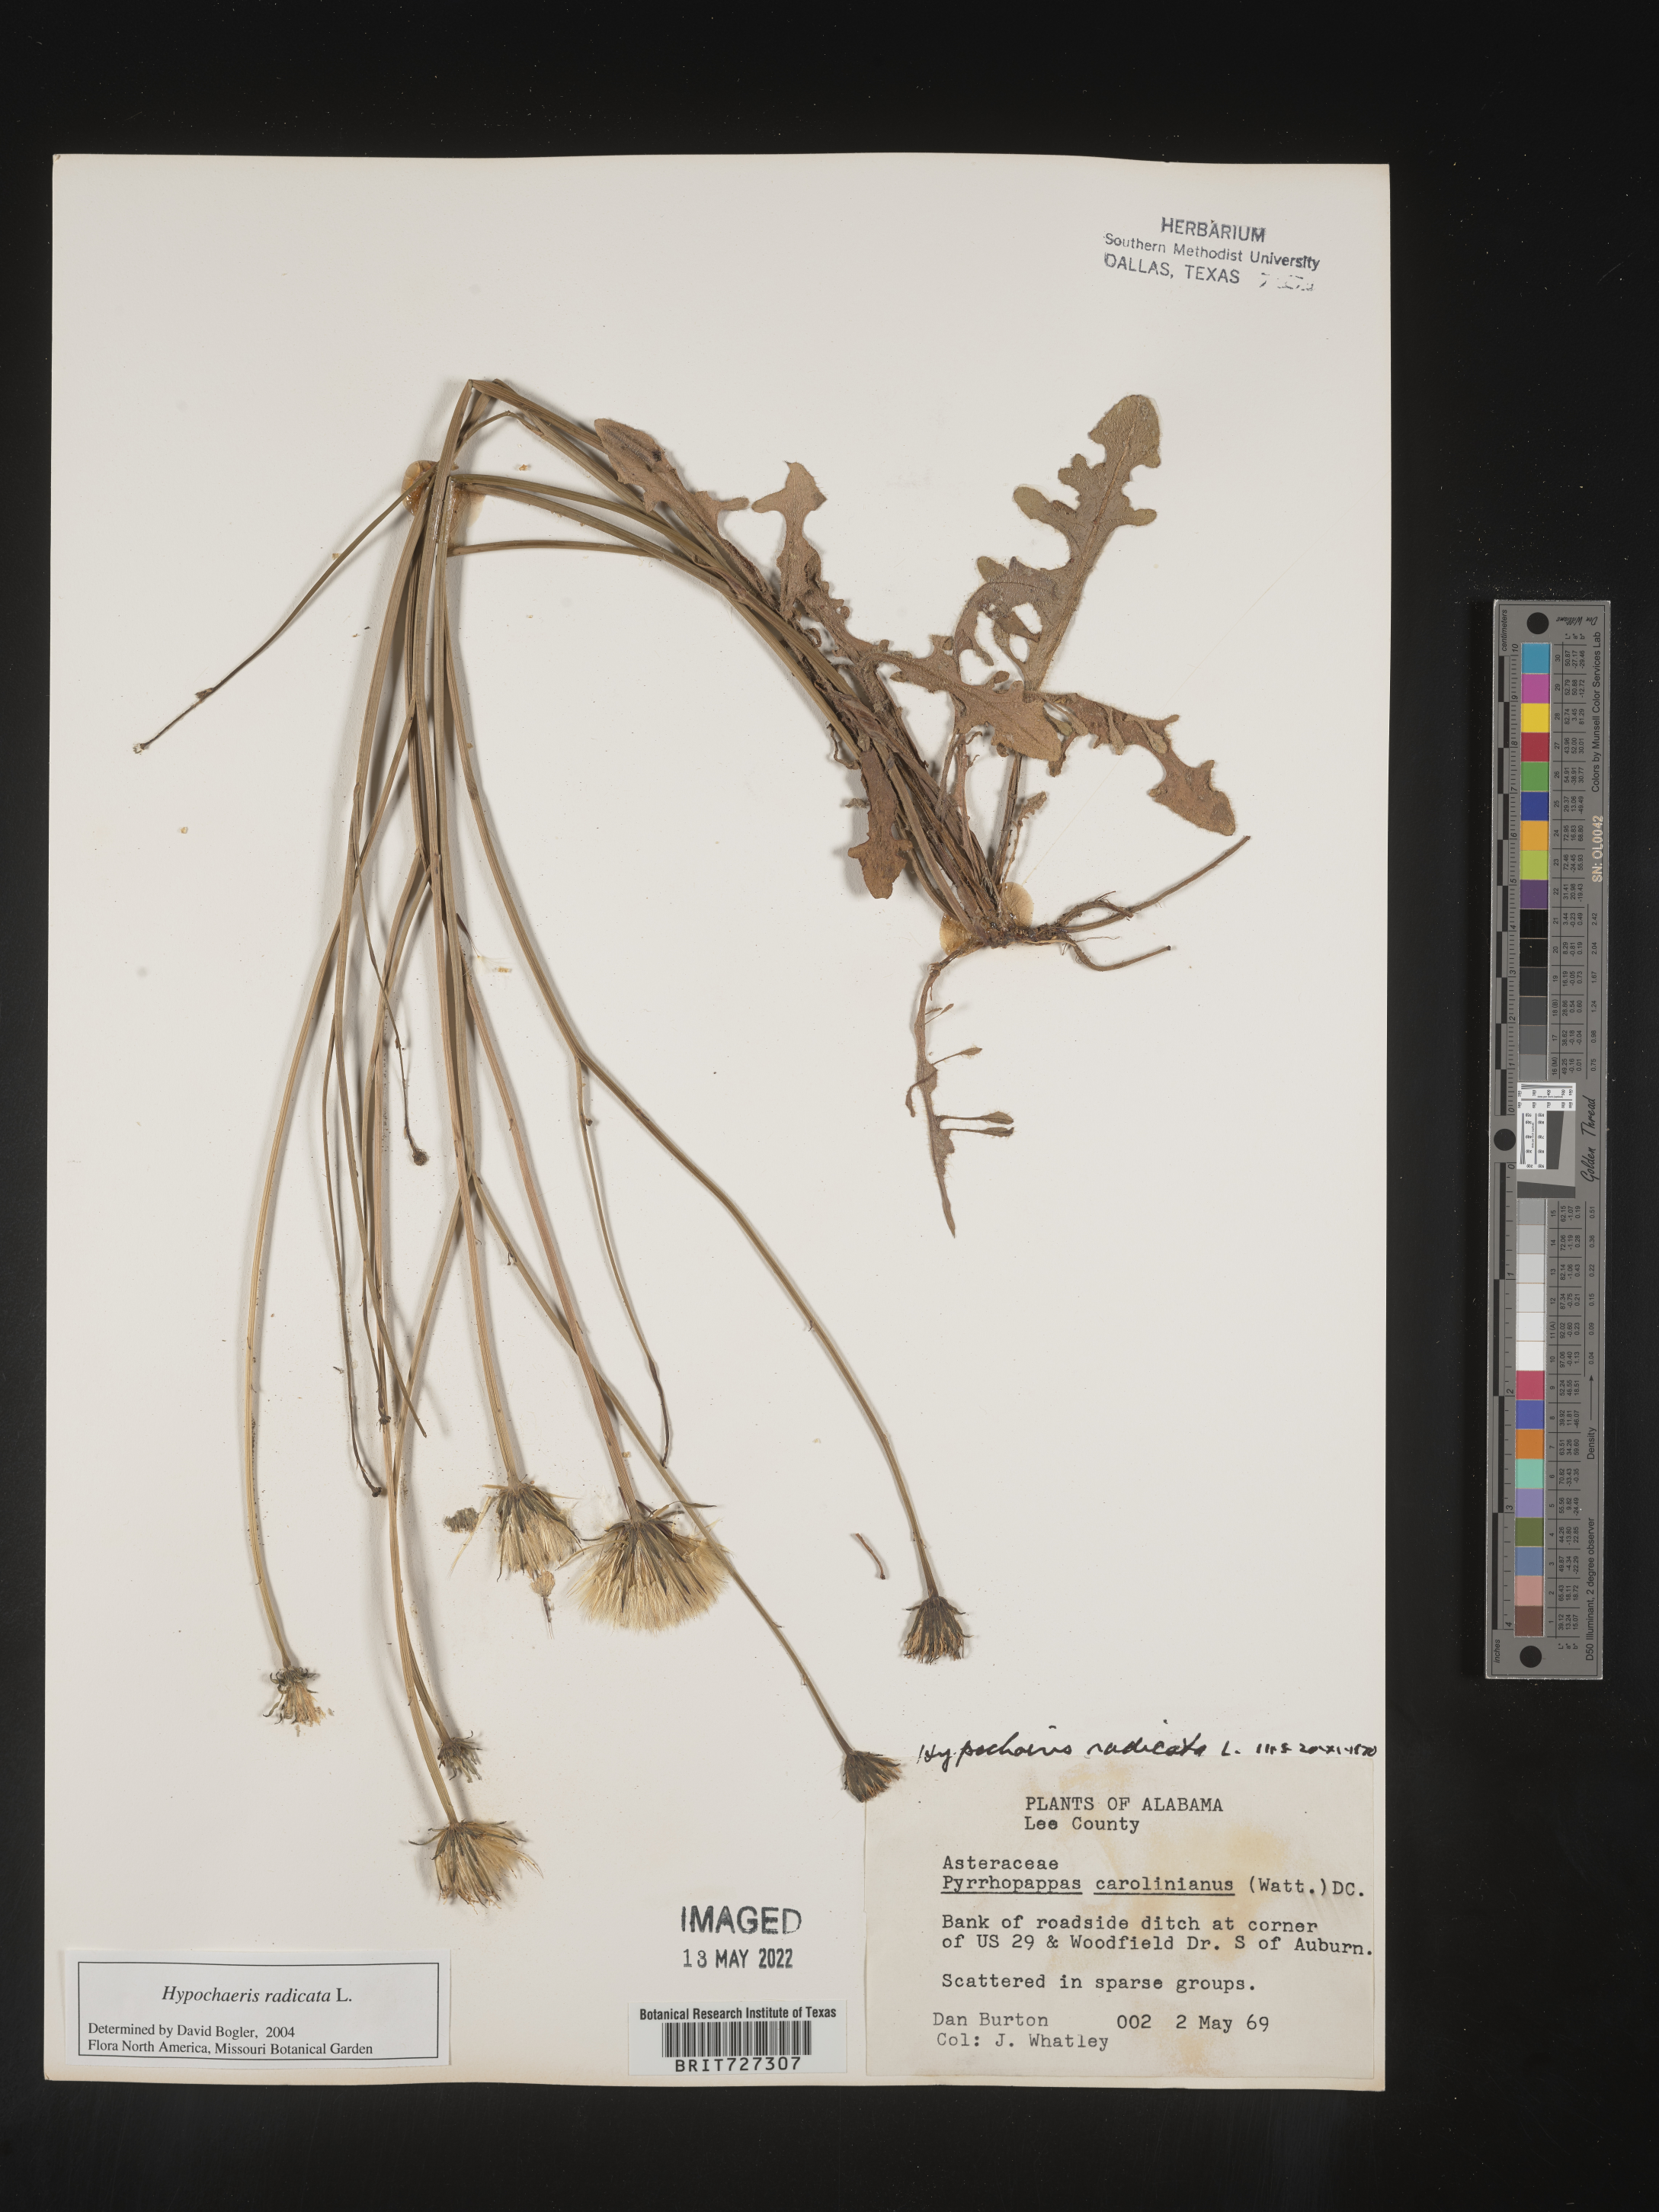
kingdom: Plantae
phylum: Tracheophyta
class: Magnoliopsida
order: Asterales
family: Asteraceae
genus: Hypochaeris
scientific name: Hypochaeris radicata
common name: Flatweed
